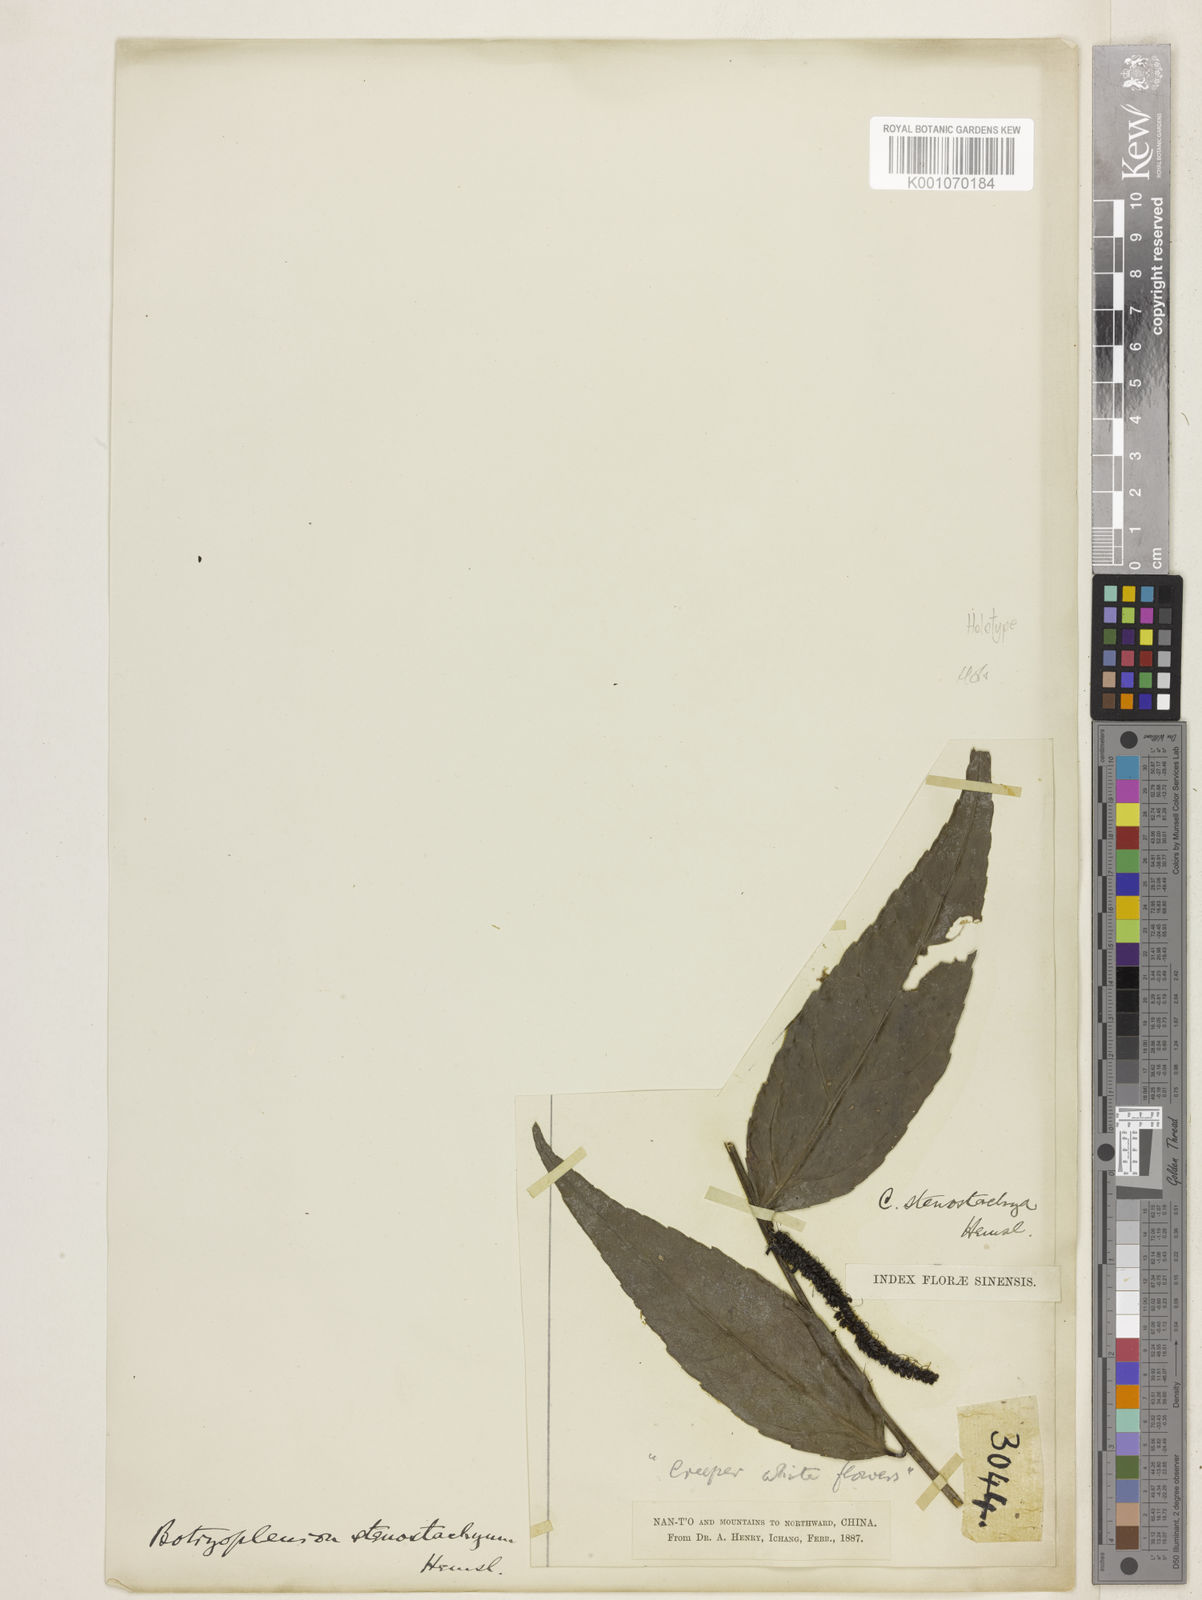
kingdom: Plantae
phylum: Tracheophyta
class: Magnoliopsida
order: Lamiales
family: Plantaginaceae
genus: Veronicastrum
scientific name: Veronicastrum stenostachyum
